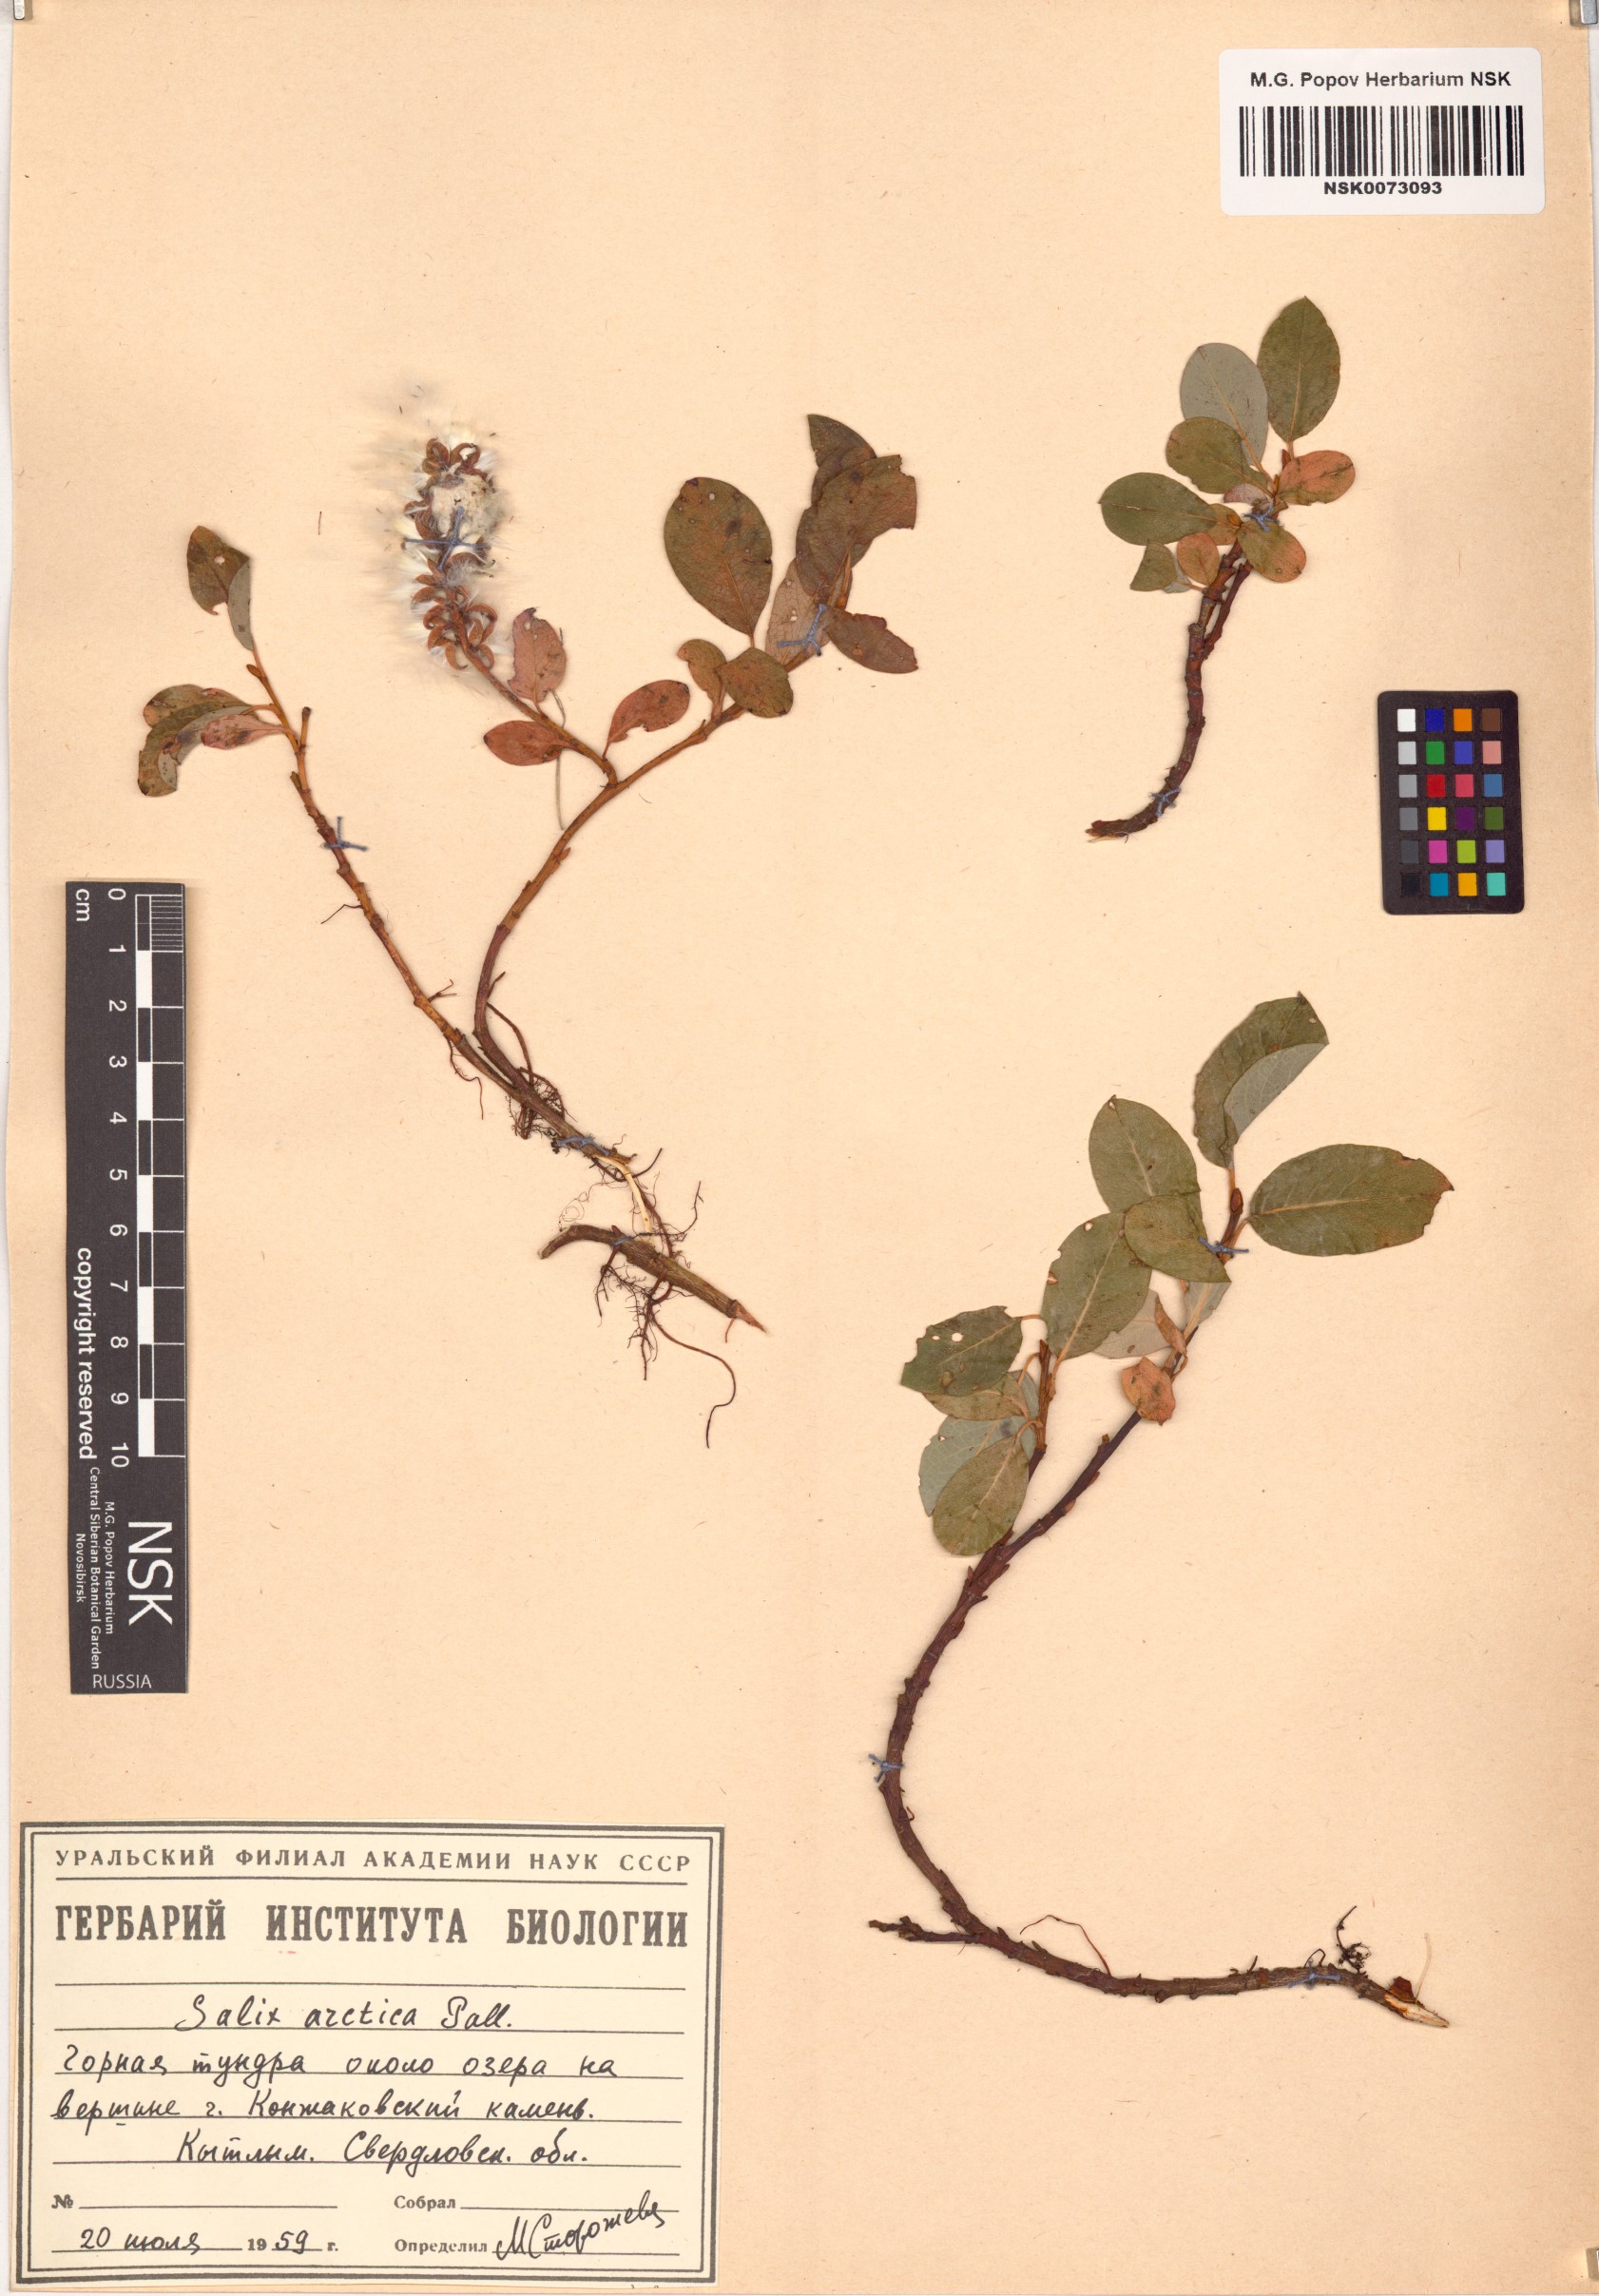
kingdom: Plantae
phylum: Tracheophyta
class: Magnoliopsida
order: Malpighiales
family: Salicaceae
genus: Salix
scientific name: Salix arctica
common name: Arctic willow
